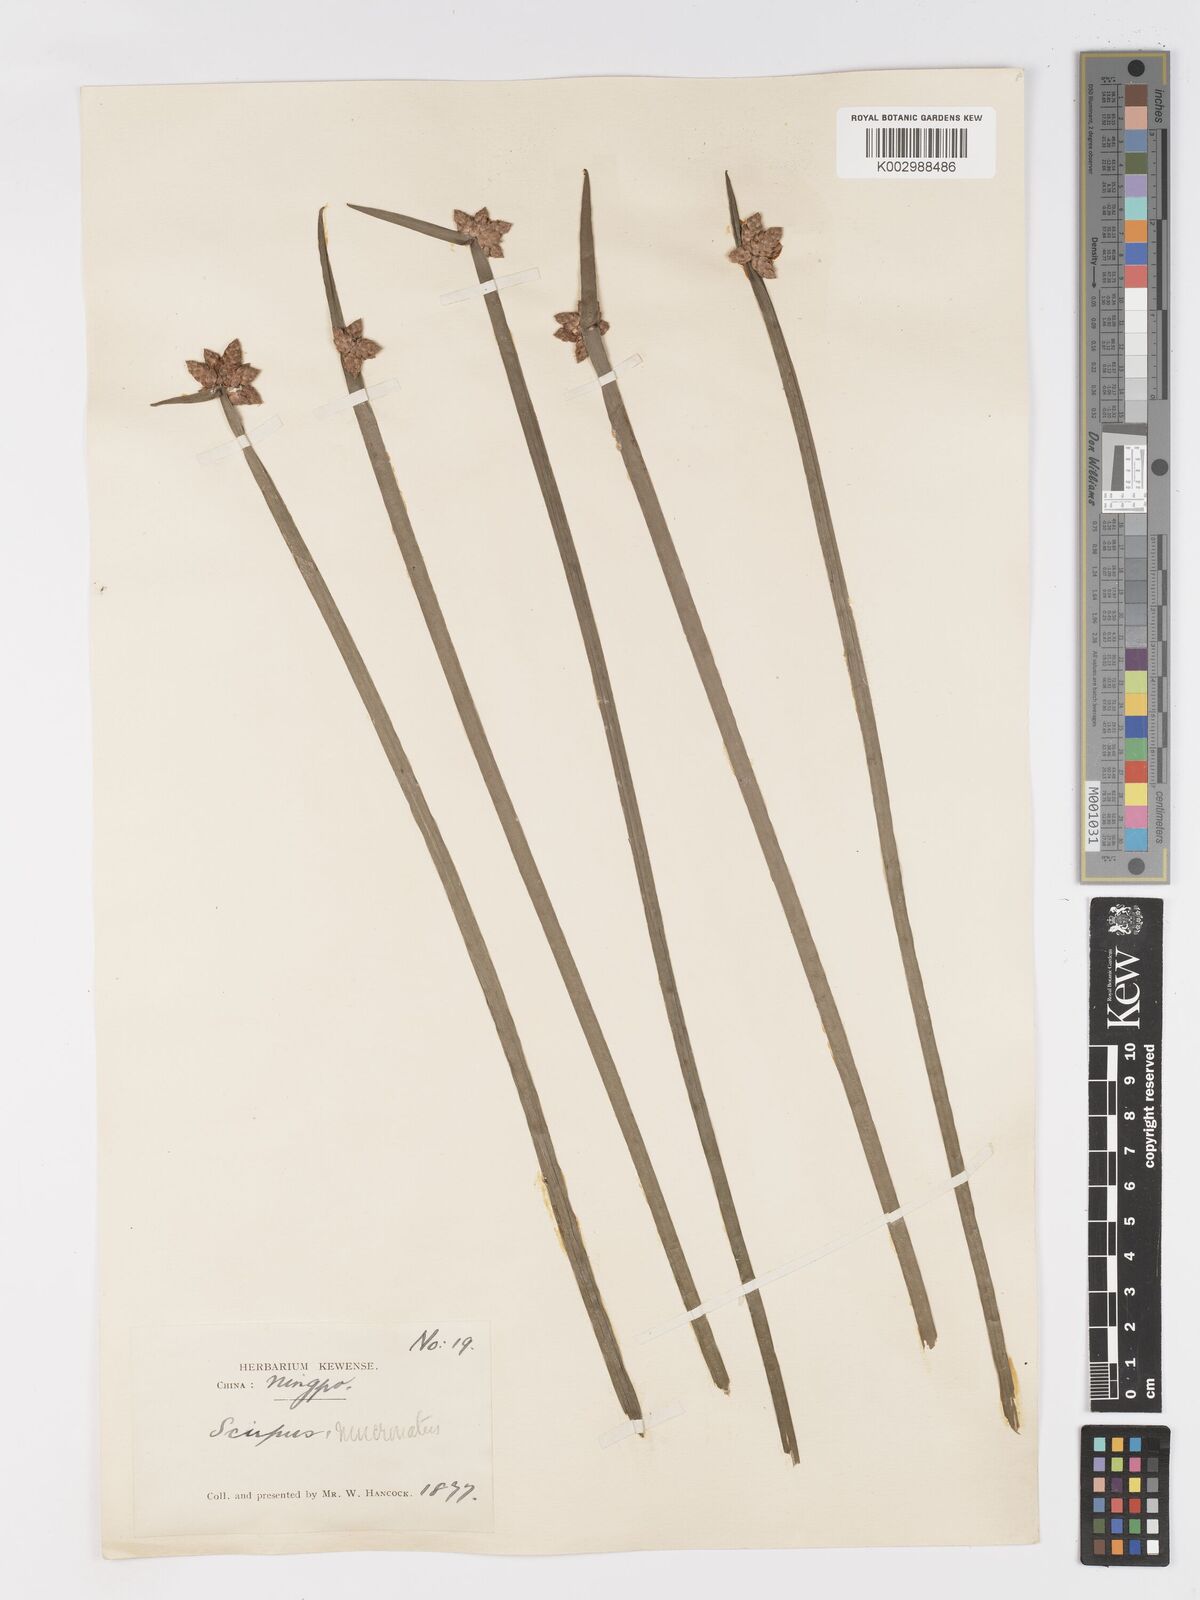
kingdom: Plantae
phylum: Tracheophyta
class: Liliopsida
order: Poales
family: Cyperaceae
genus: Schoenoplectiella
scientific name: Schoenoplectiella mucronata
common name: Bog bulrush
